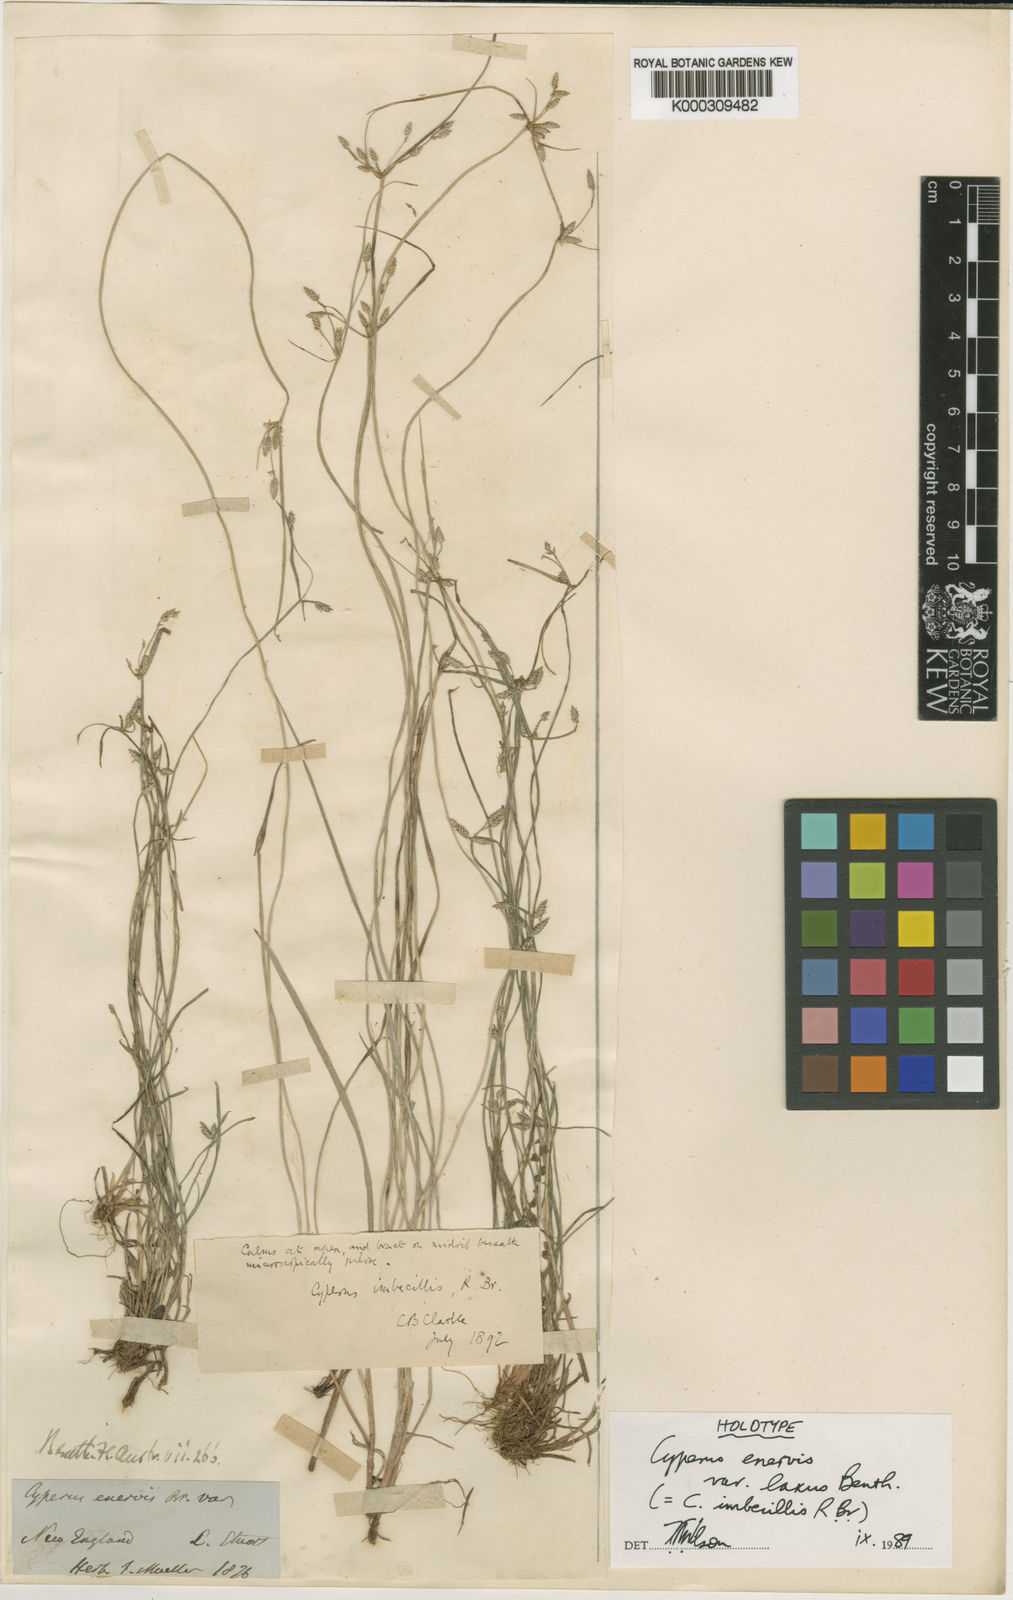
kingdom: Plantae
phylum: Tracheophyta
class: Liliopsida
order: Poales
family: Cyperaceae
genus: Cyperus
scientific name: Cyperus trinervis
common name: Australian flatsedge
